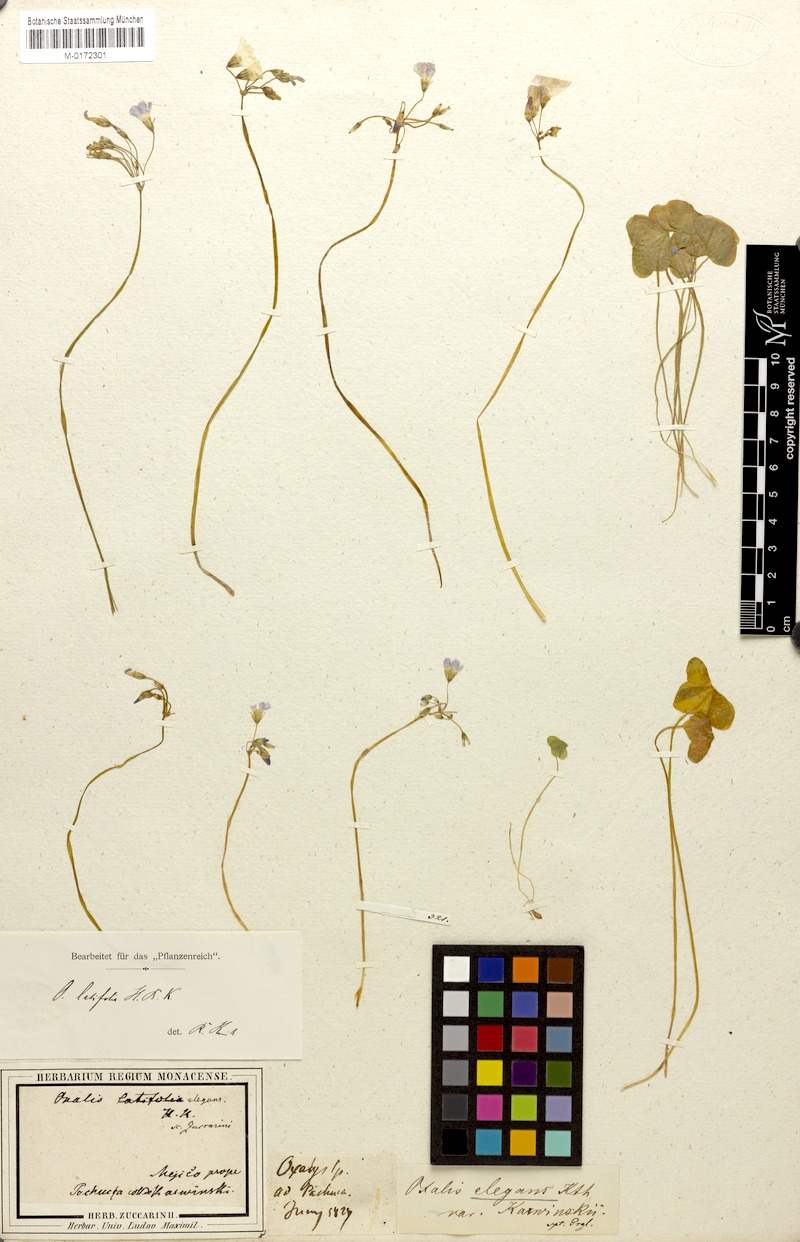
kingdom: Plantae
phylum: Tracheophyta
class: Magnoliopsida
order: Oxalidales
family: Oxalidaceae
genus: Oxalis
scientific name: Oxalis latifolia
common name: Garden pink-sorrel
